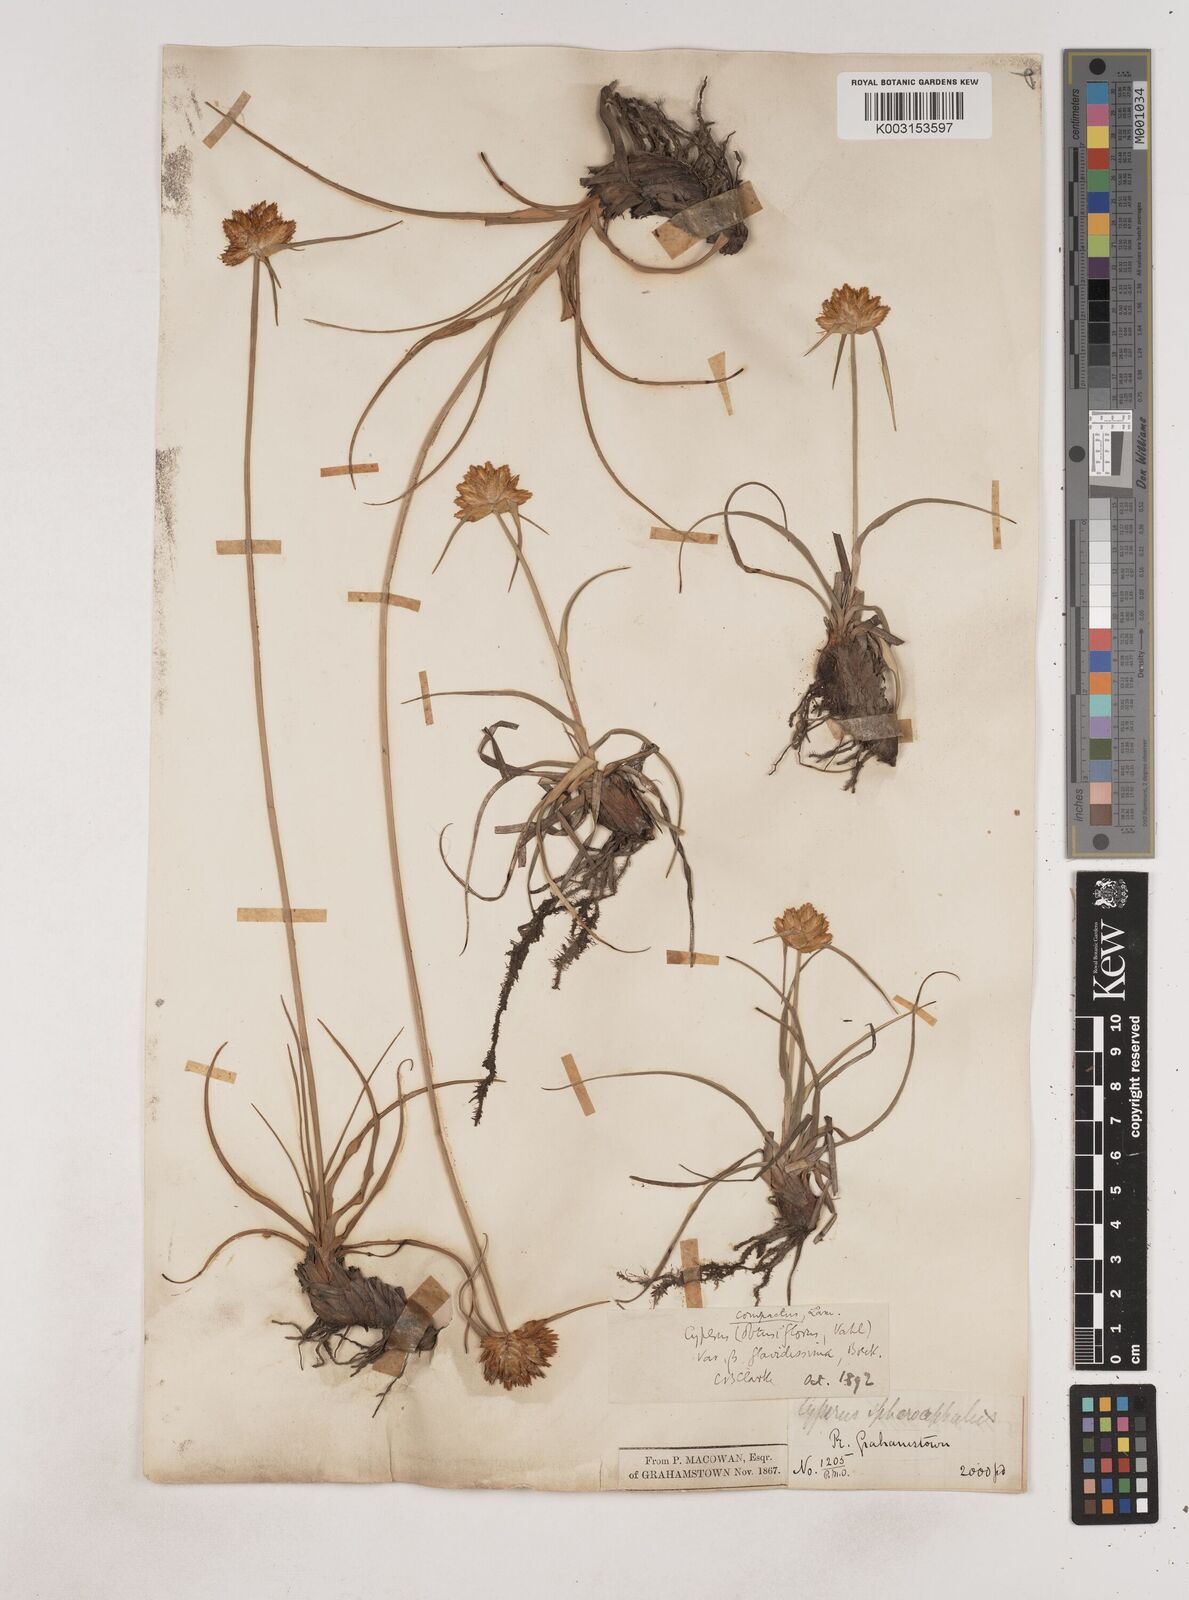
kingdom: Plantae
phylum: Tracheophyta
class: Liliopsida
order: Poales
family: Cyperaceae
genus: Cyperus
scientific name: Cyperus niveus
